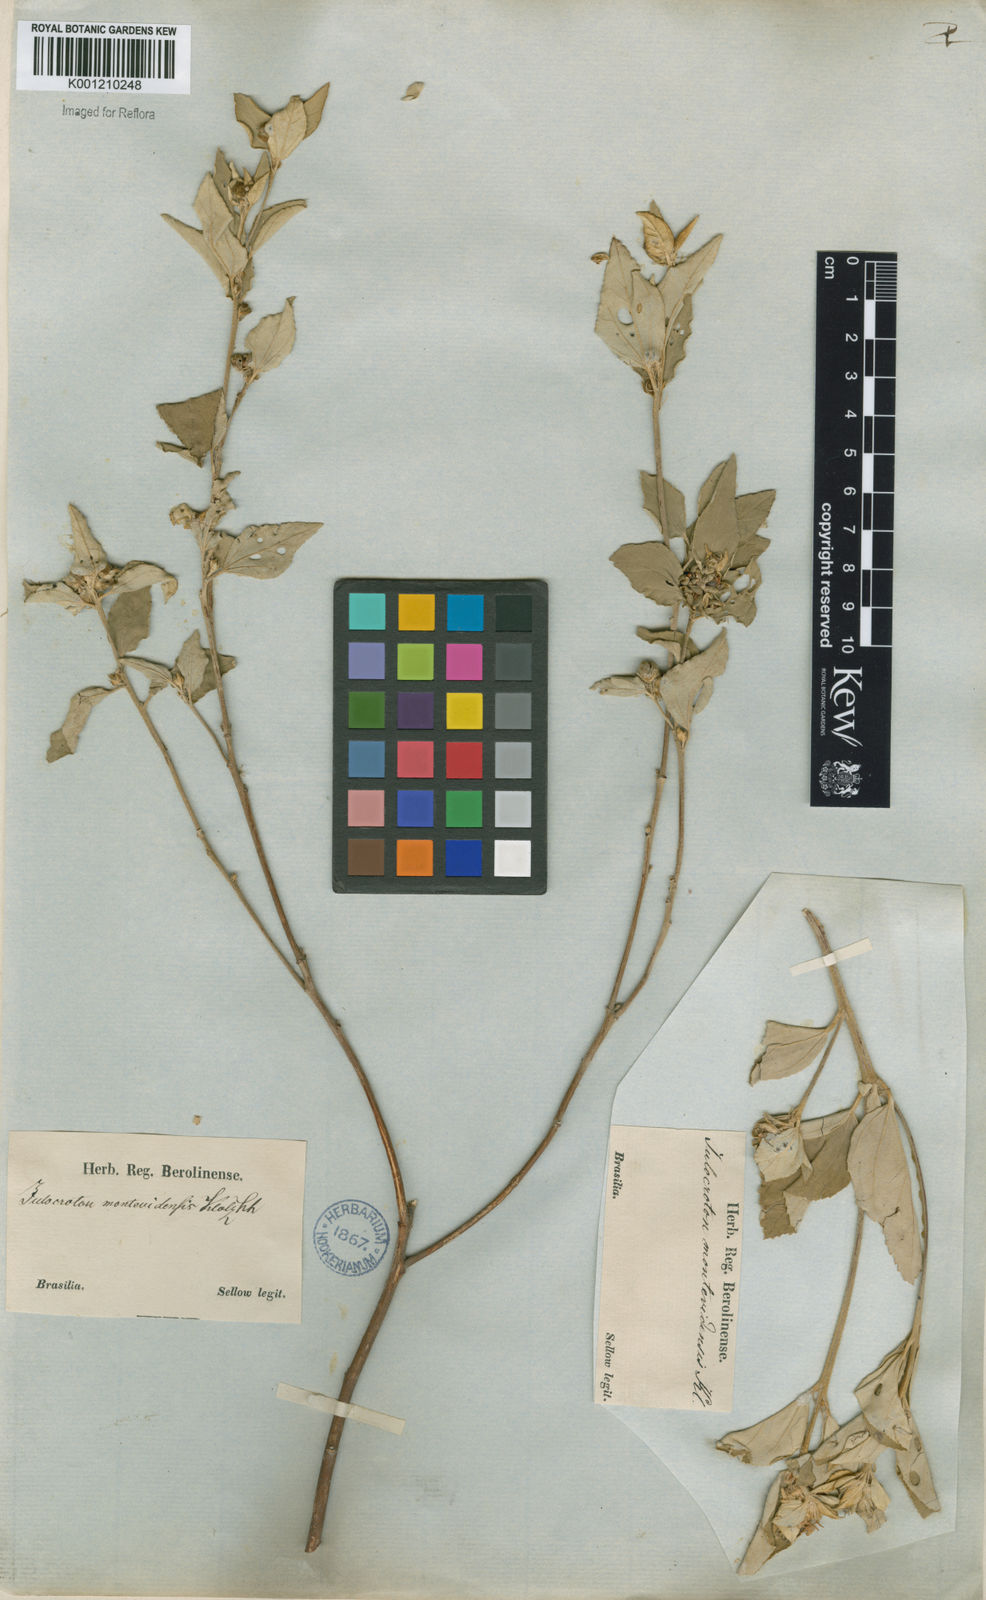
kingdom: Plantae
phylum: Tracheophyta
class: Magnoliopsida
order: Malpighiales
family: Euphorbiaceae
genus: Croton
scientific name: Croton argenteus
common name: Silver july croton
